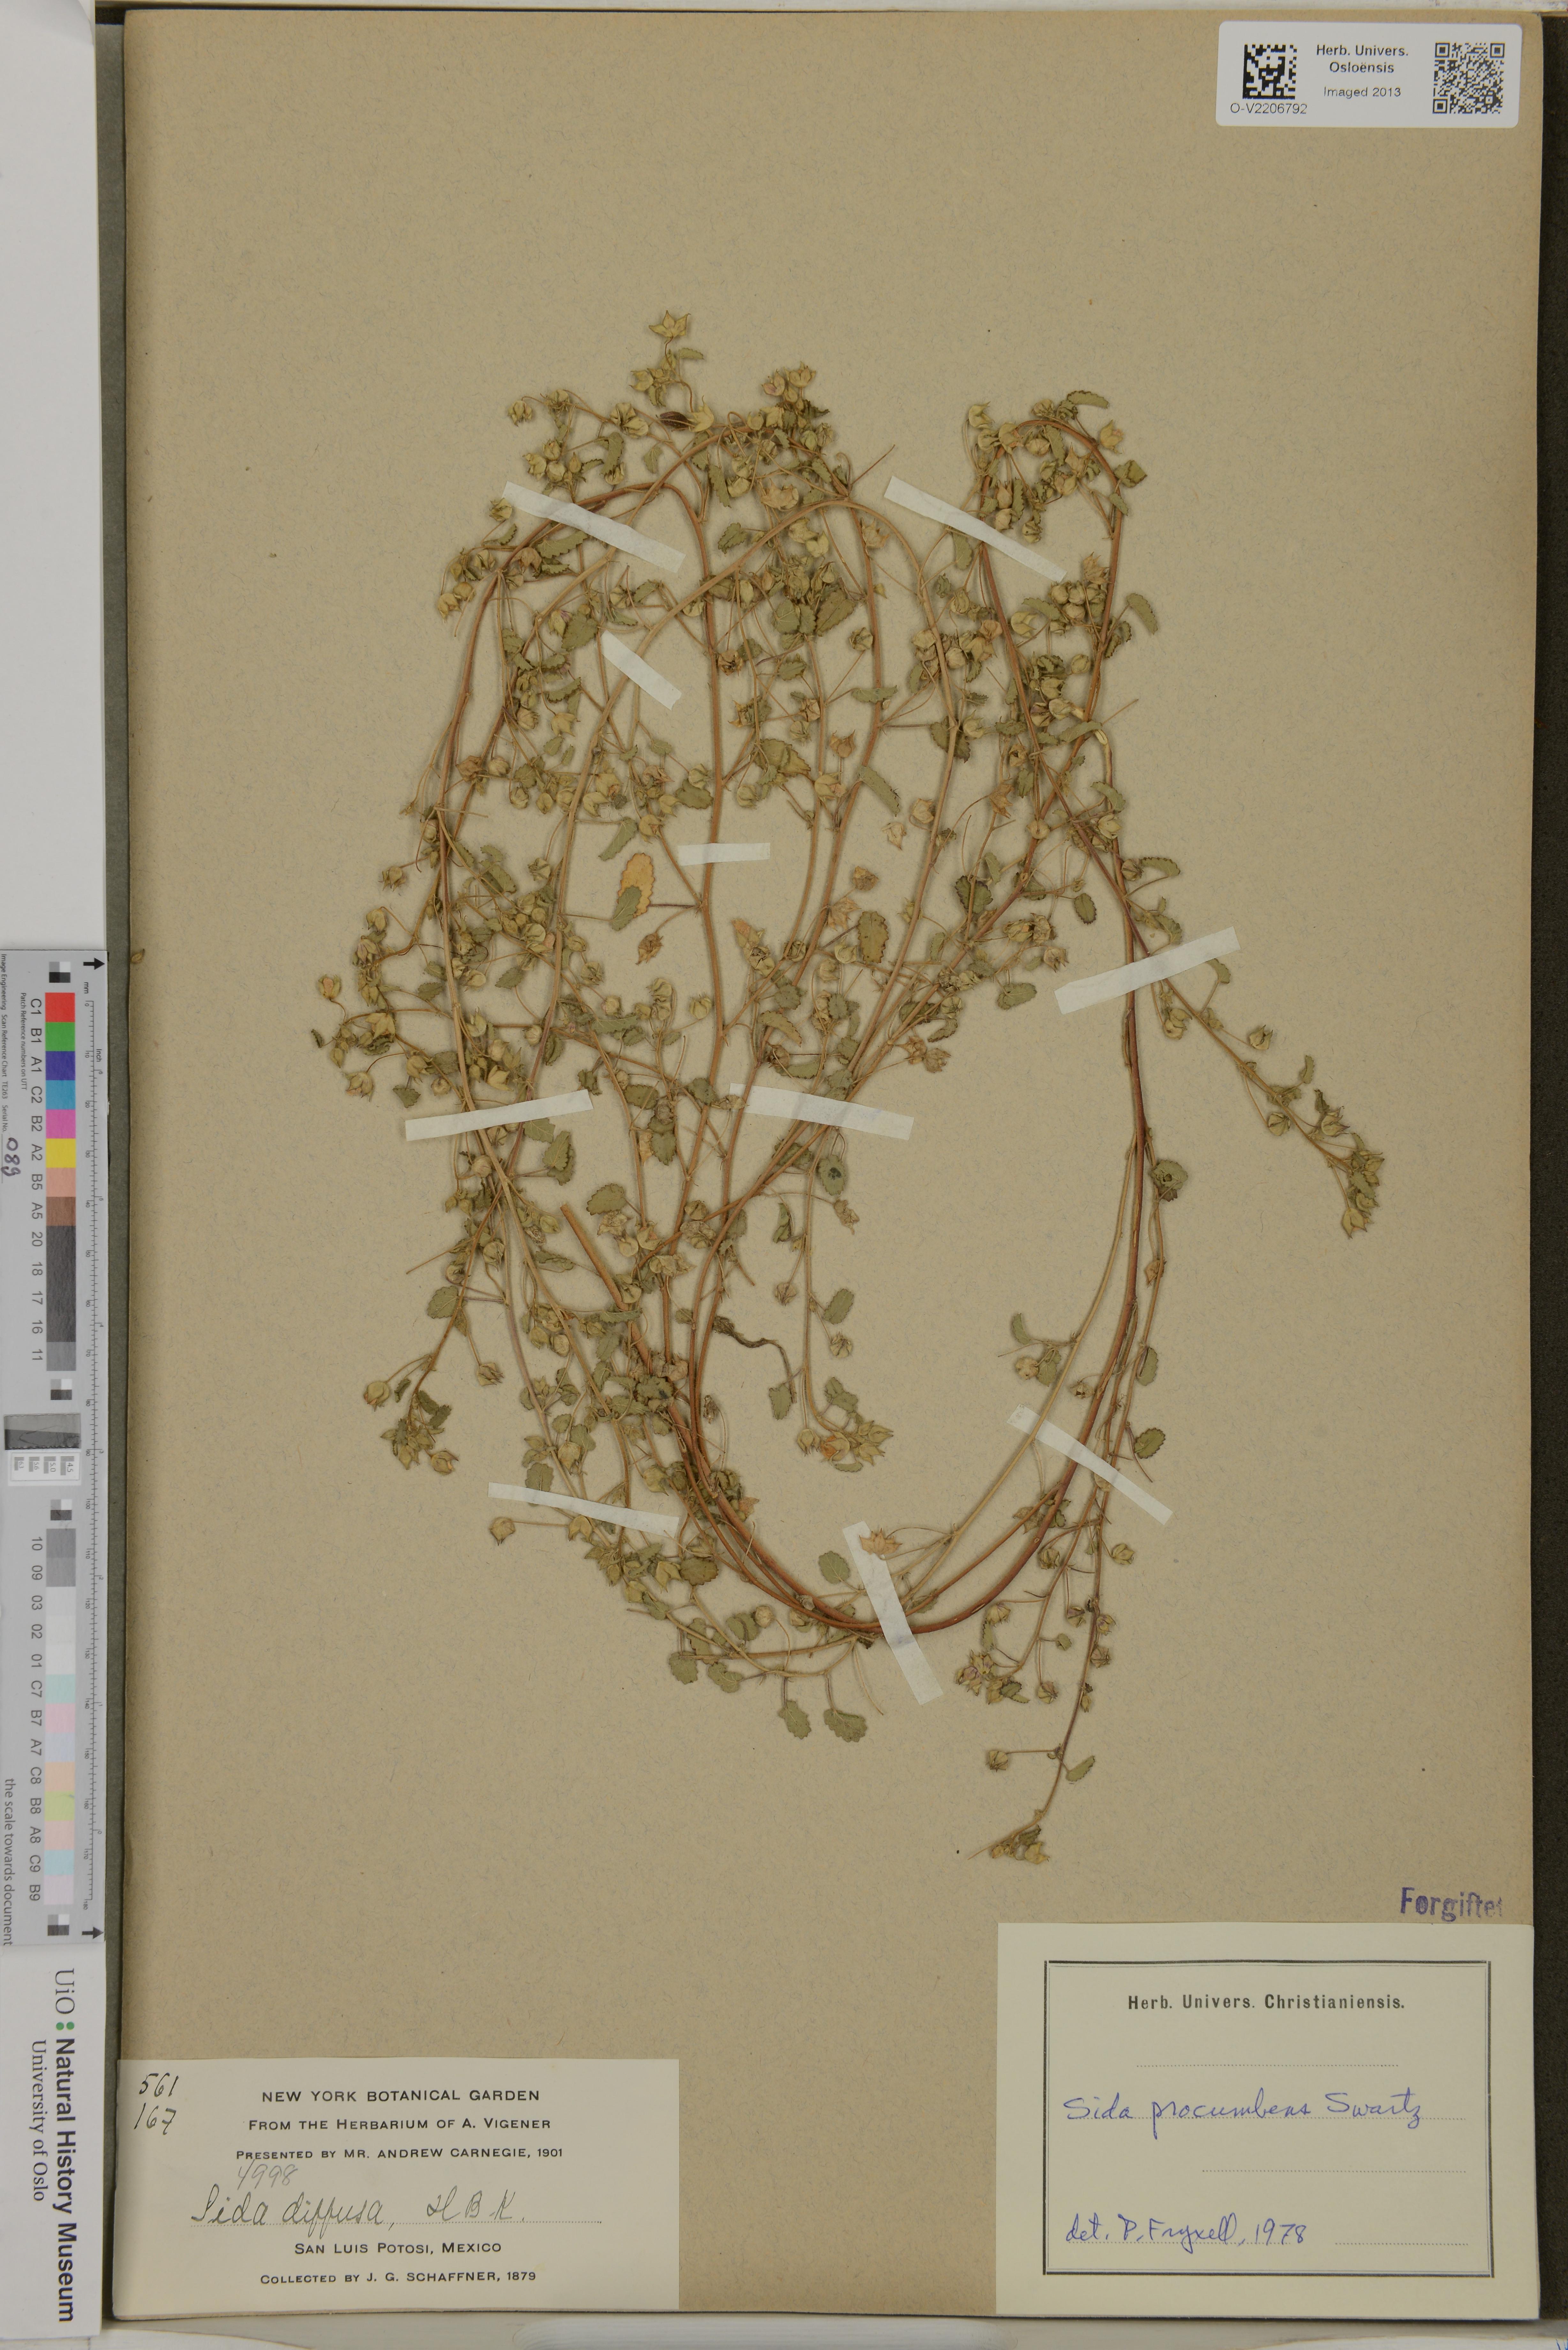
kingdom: Plantae
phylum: Tracheophyta
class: Magnoliopsida
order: Malvales
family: Malvaceae
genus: Sida
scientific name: Sida abutilifolia
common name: Spreading fanpetals
